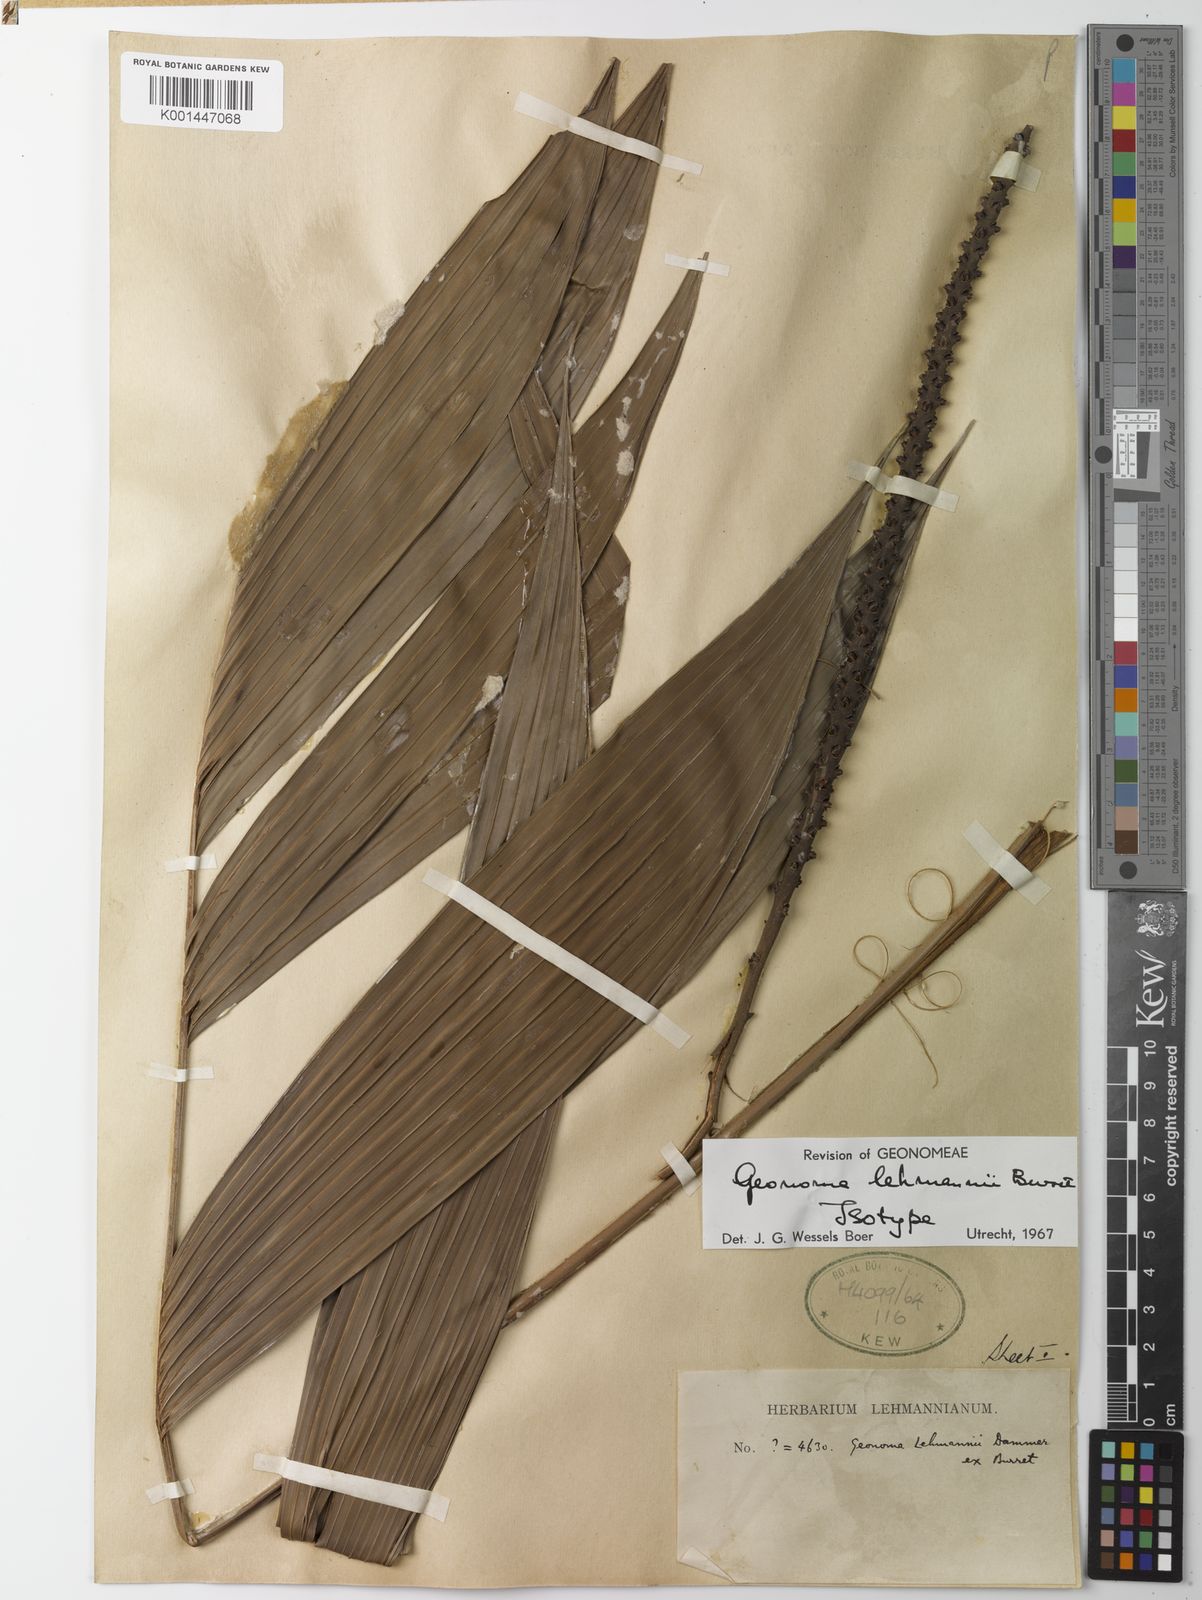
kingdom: Plantae
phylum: Tracheophyta
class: Liliopsida
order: Arecales
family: Arecaceae
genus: Geonoma
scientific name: Geonoma lehmannii
